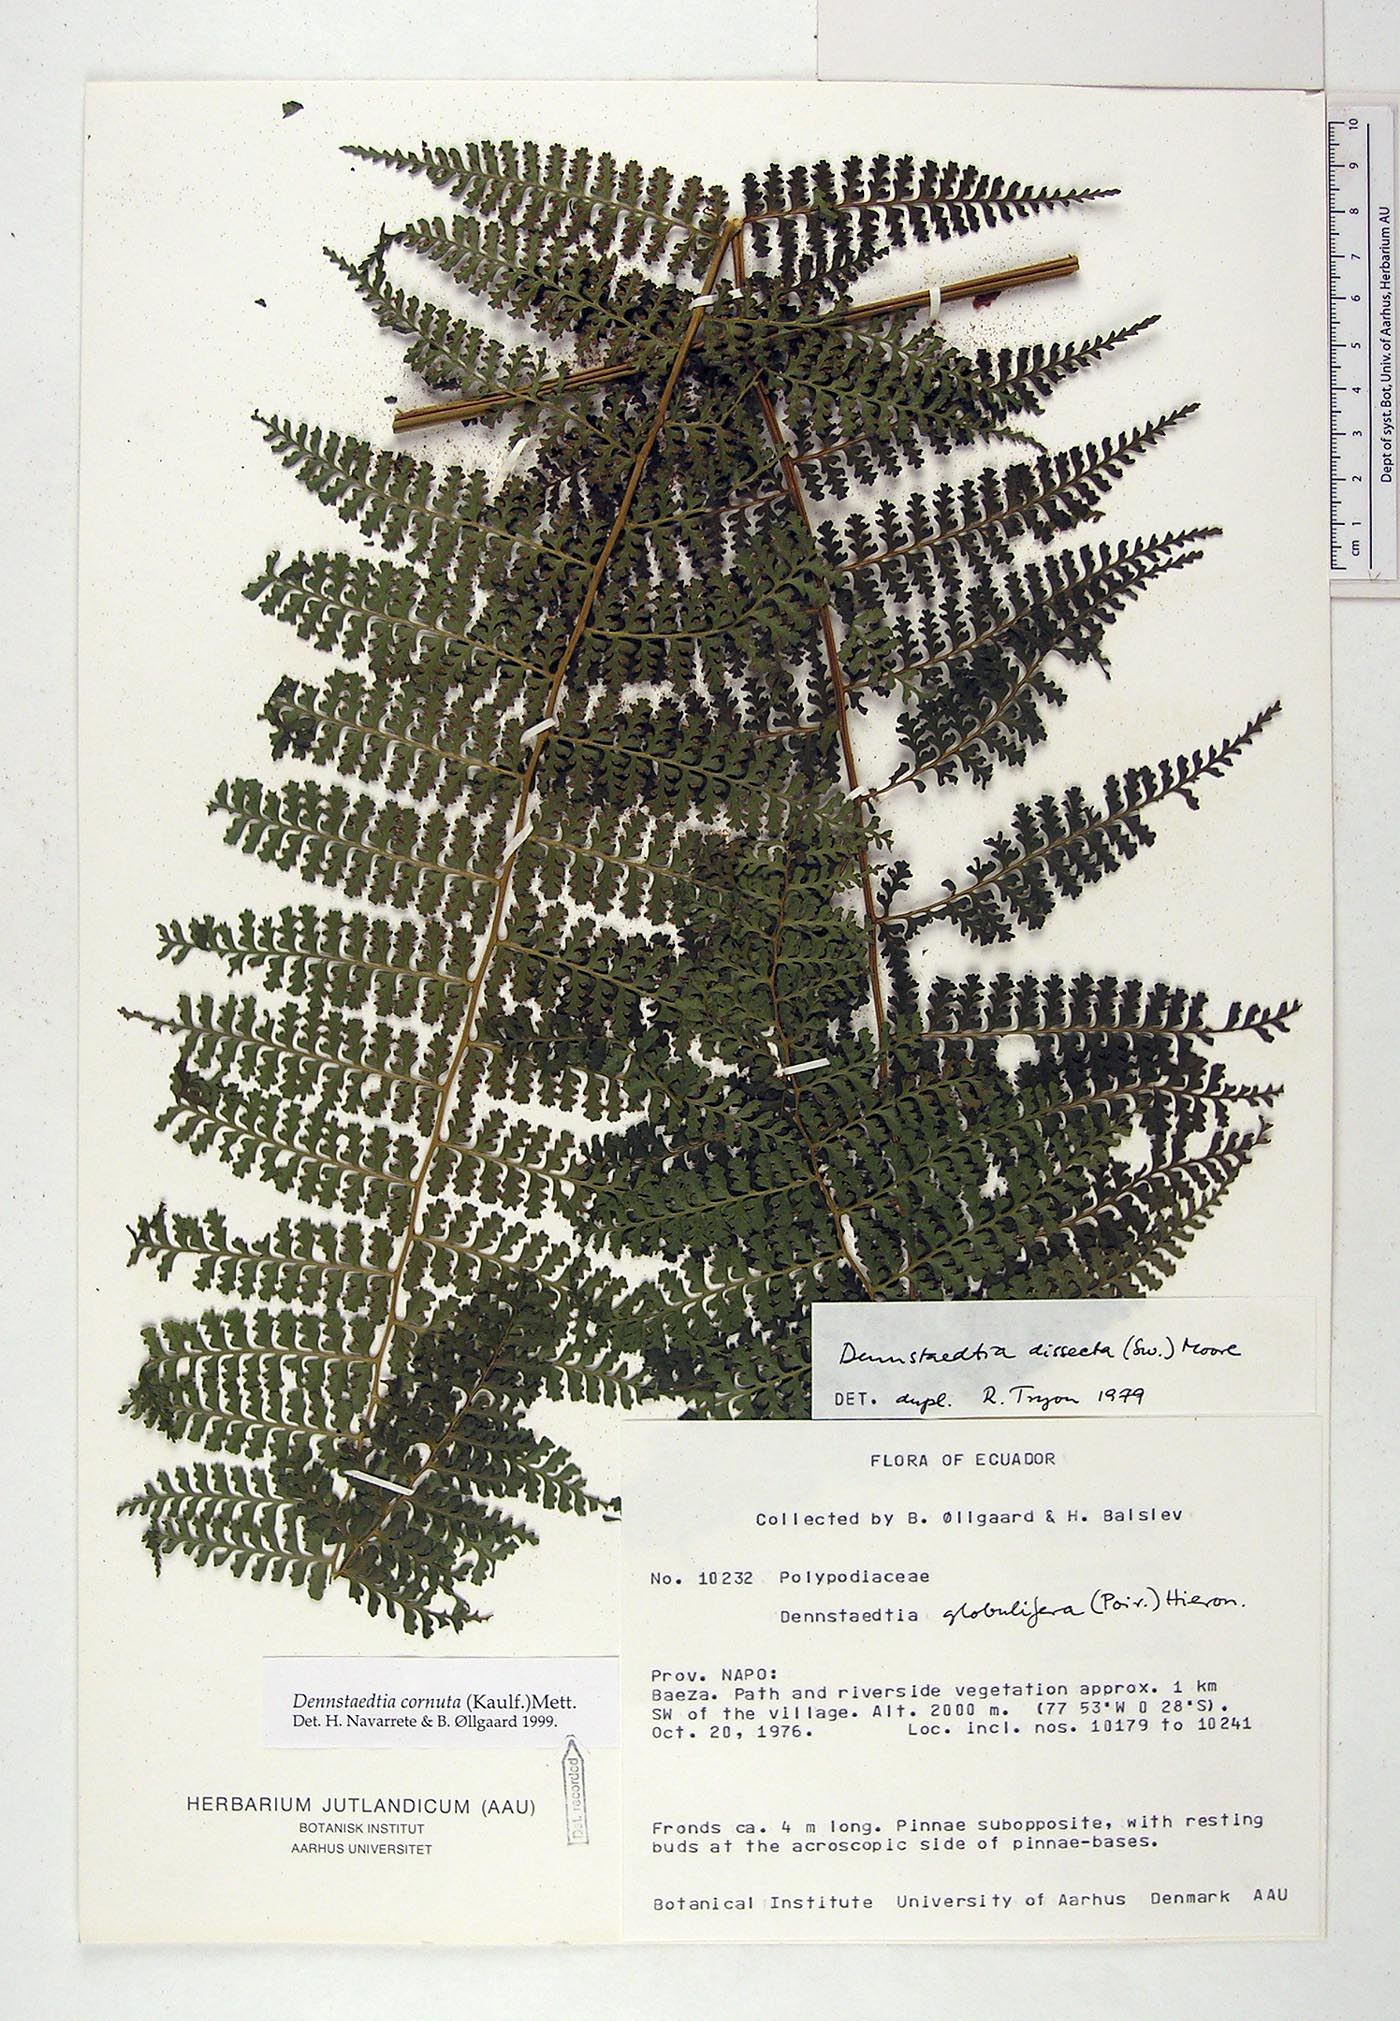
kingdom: Plantae
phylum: Tracheophyta
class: Polypodiopsida
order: Polypodiales
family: Dennstaedtiaceae
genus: Dennstaedtia
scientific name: Dennstaedtia cornuta
